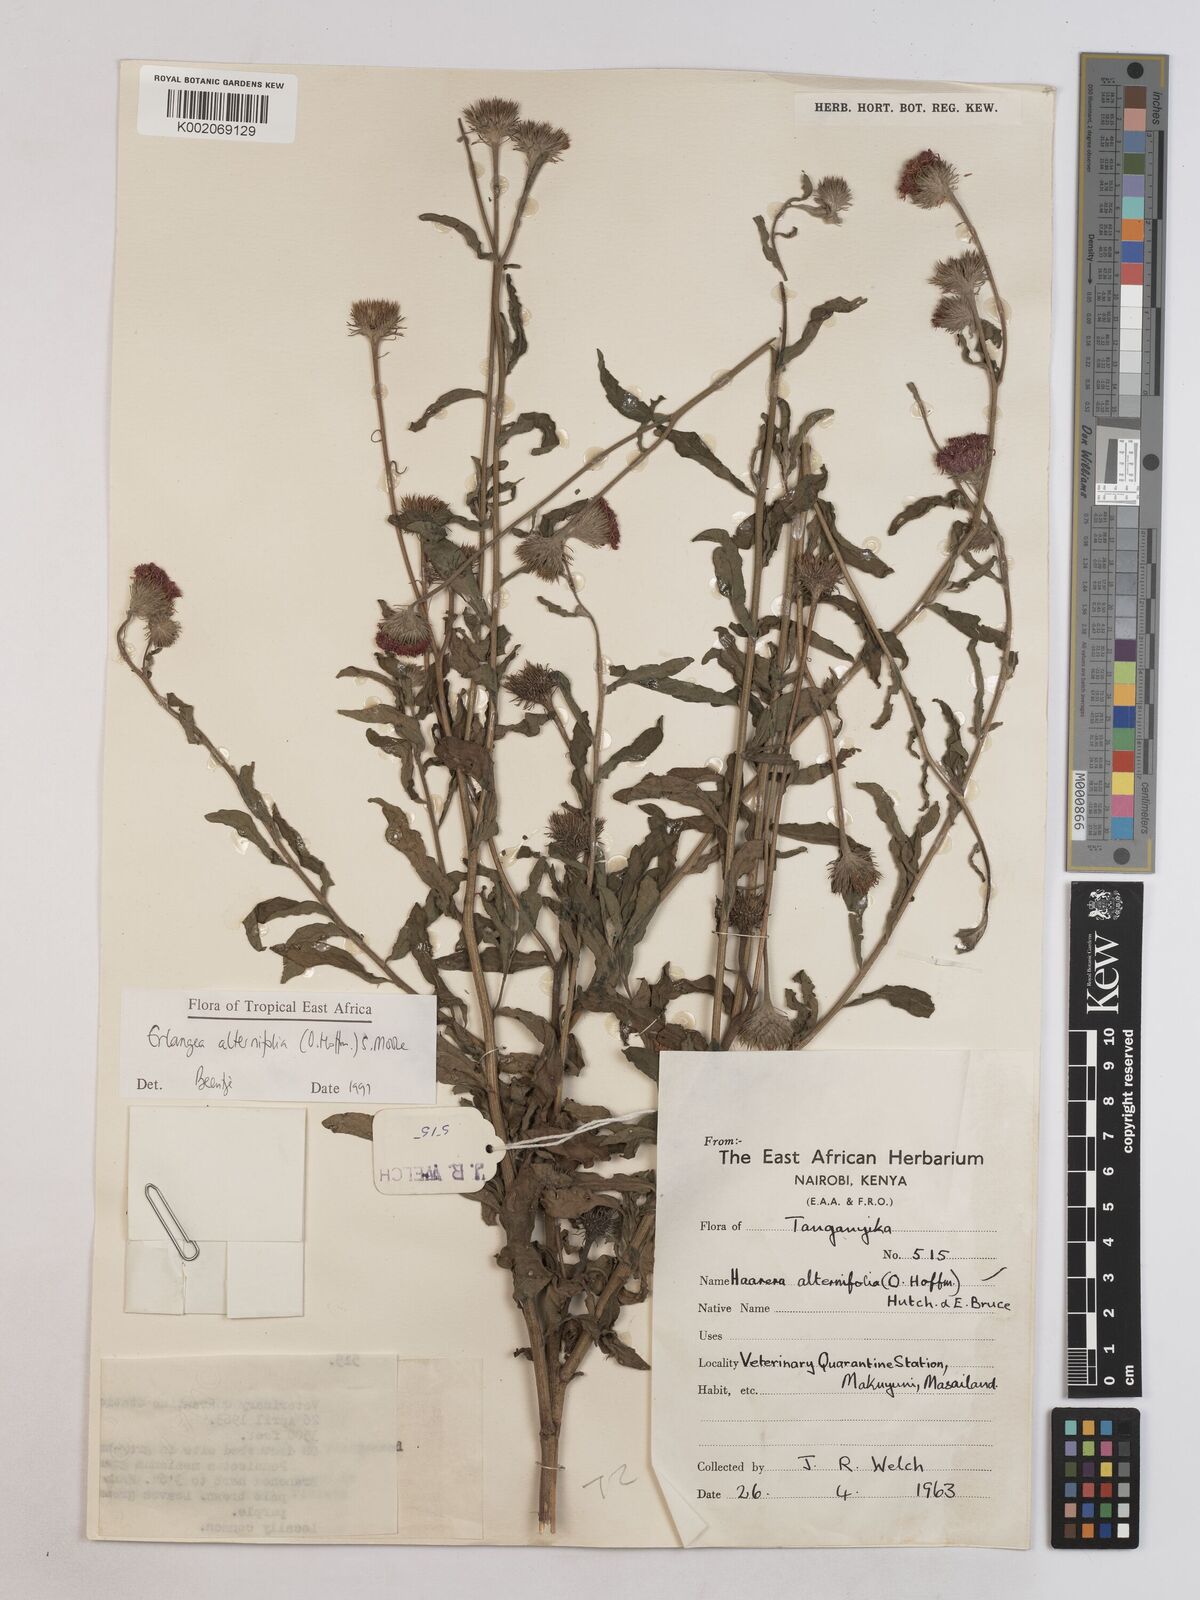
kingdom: Plantae
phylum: Tracheophyta
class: Magnoliopsida
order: Asterales
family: Asteraceae
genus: Erlangea
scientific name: Erlangea alternifolia
